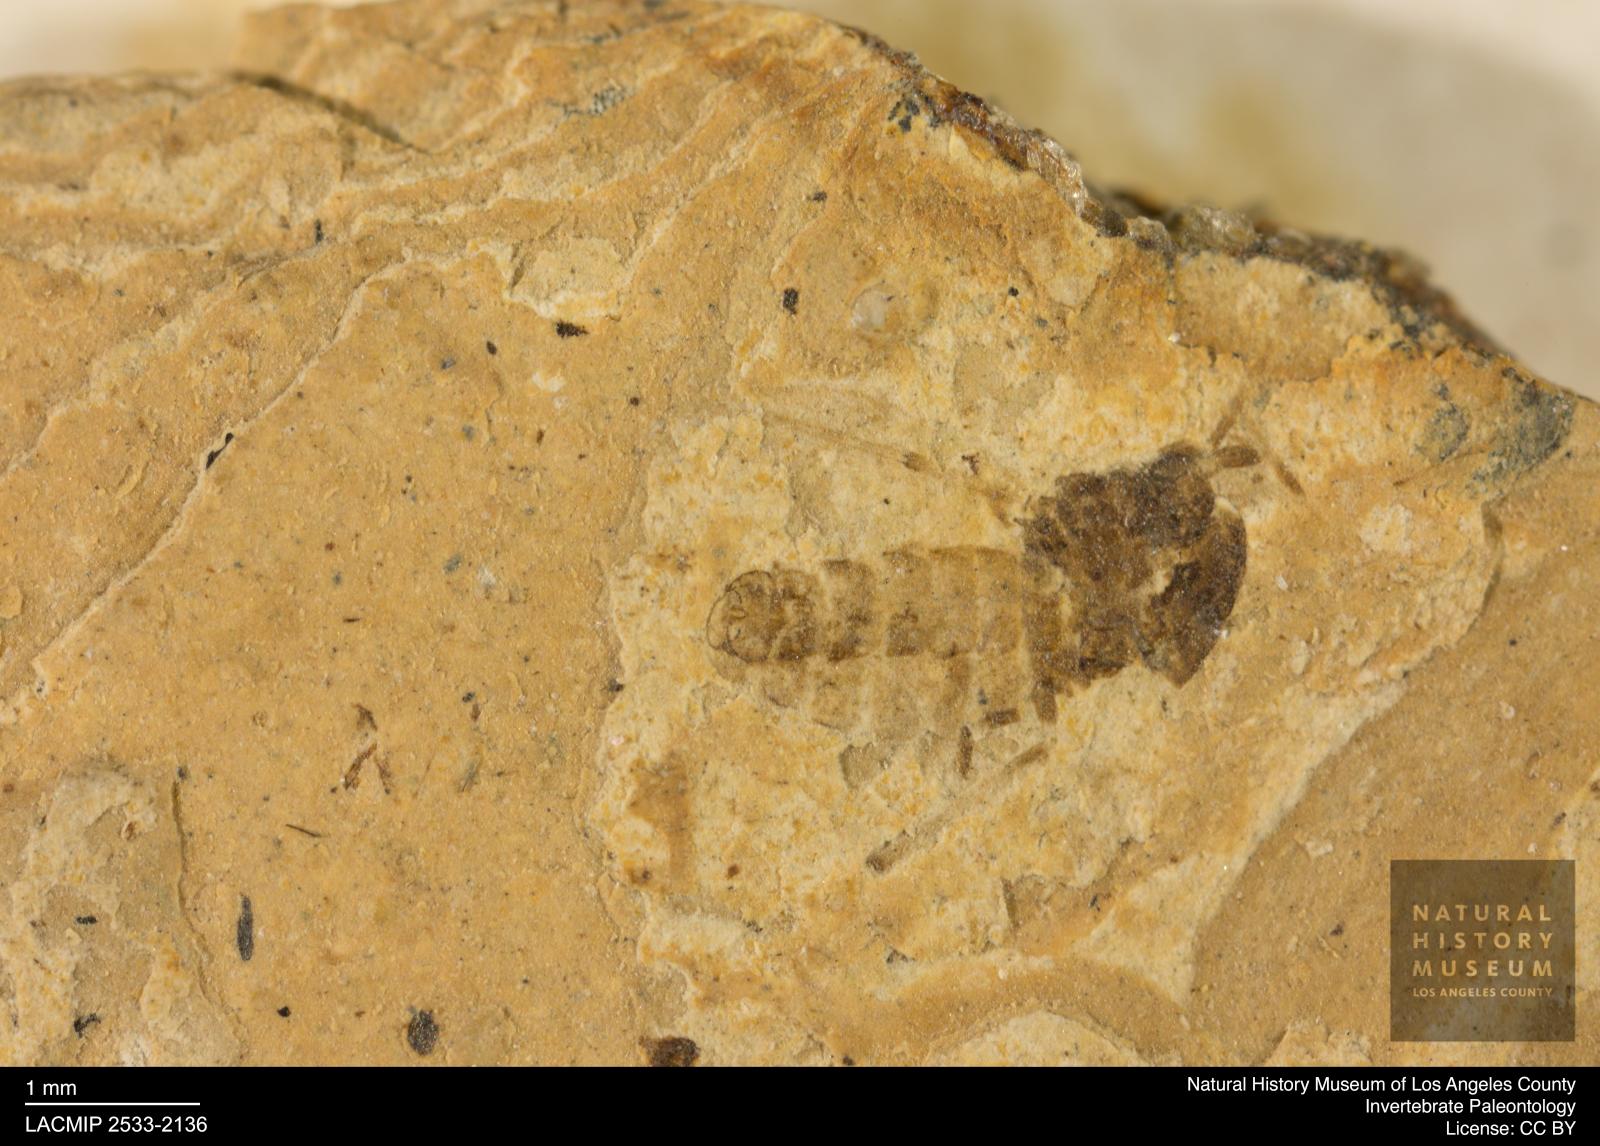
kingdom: Animalia
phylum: Arthropoda
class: Insecta
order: Diptera
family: Chironomidae
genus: Tanypus
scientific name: Tanypus dorminans
